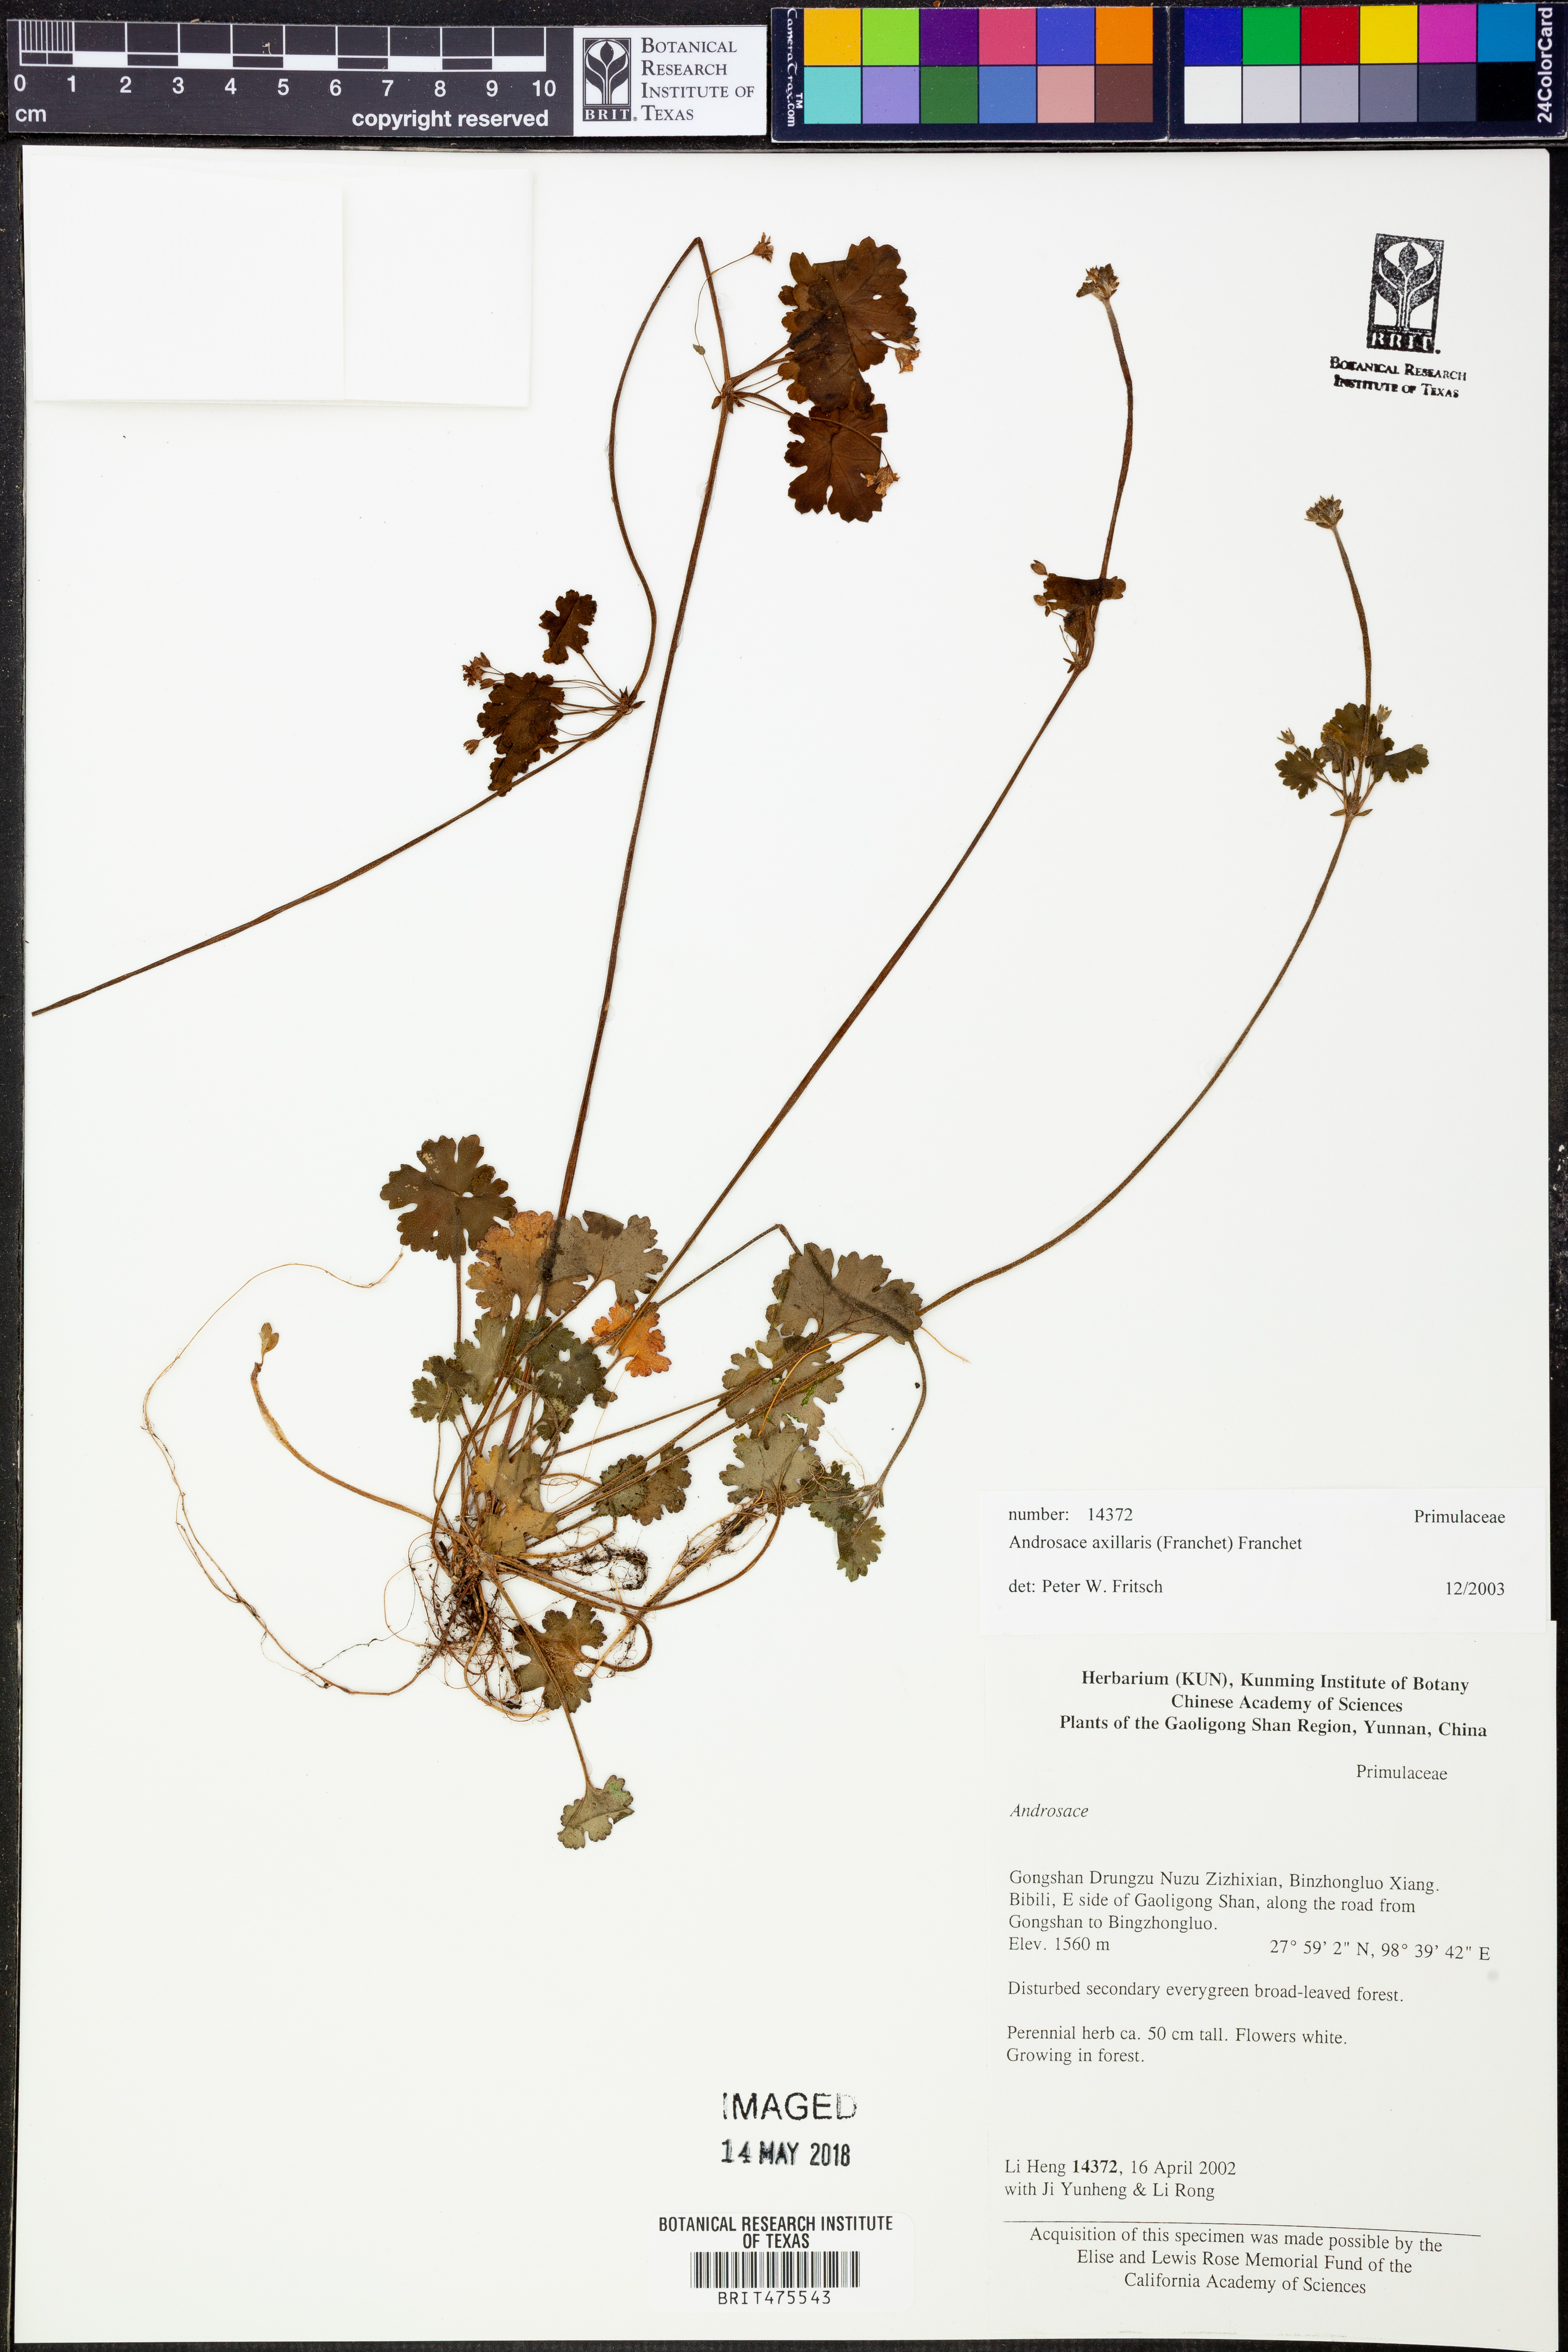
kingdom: Plantae
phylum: Tracheophyta
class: Magnoliopsida
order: Ericales
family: Primulaceae
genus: Androsace
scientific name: Androsace axillaris
